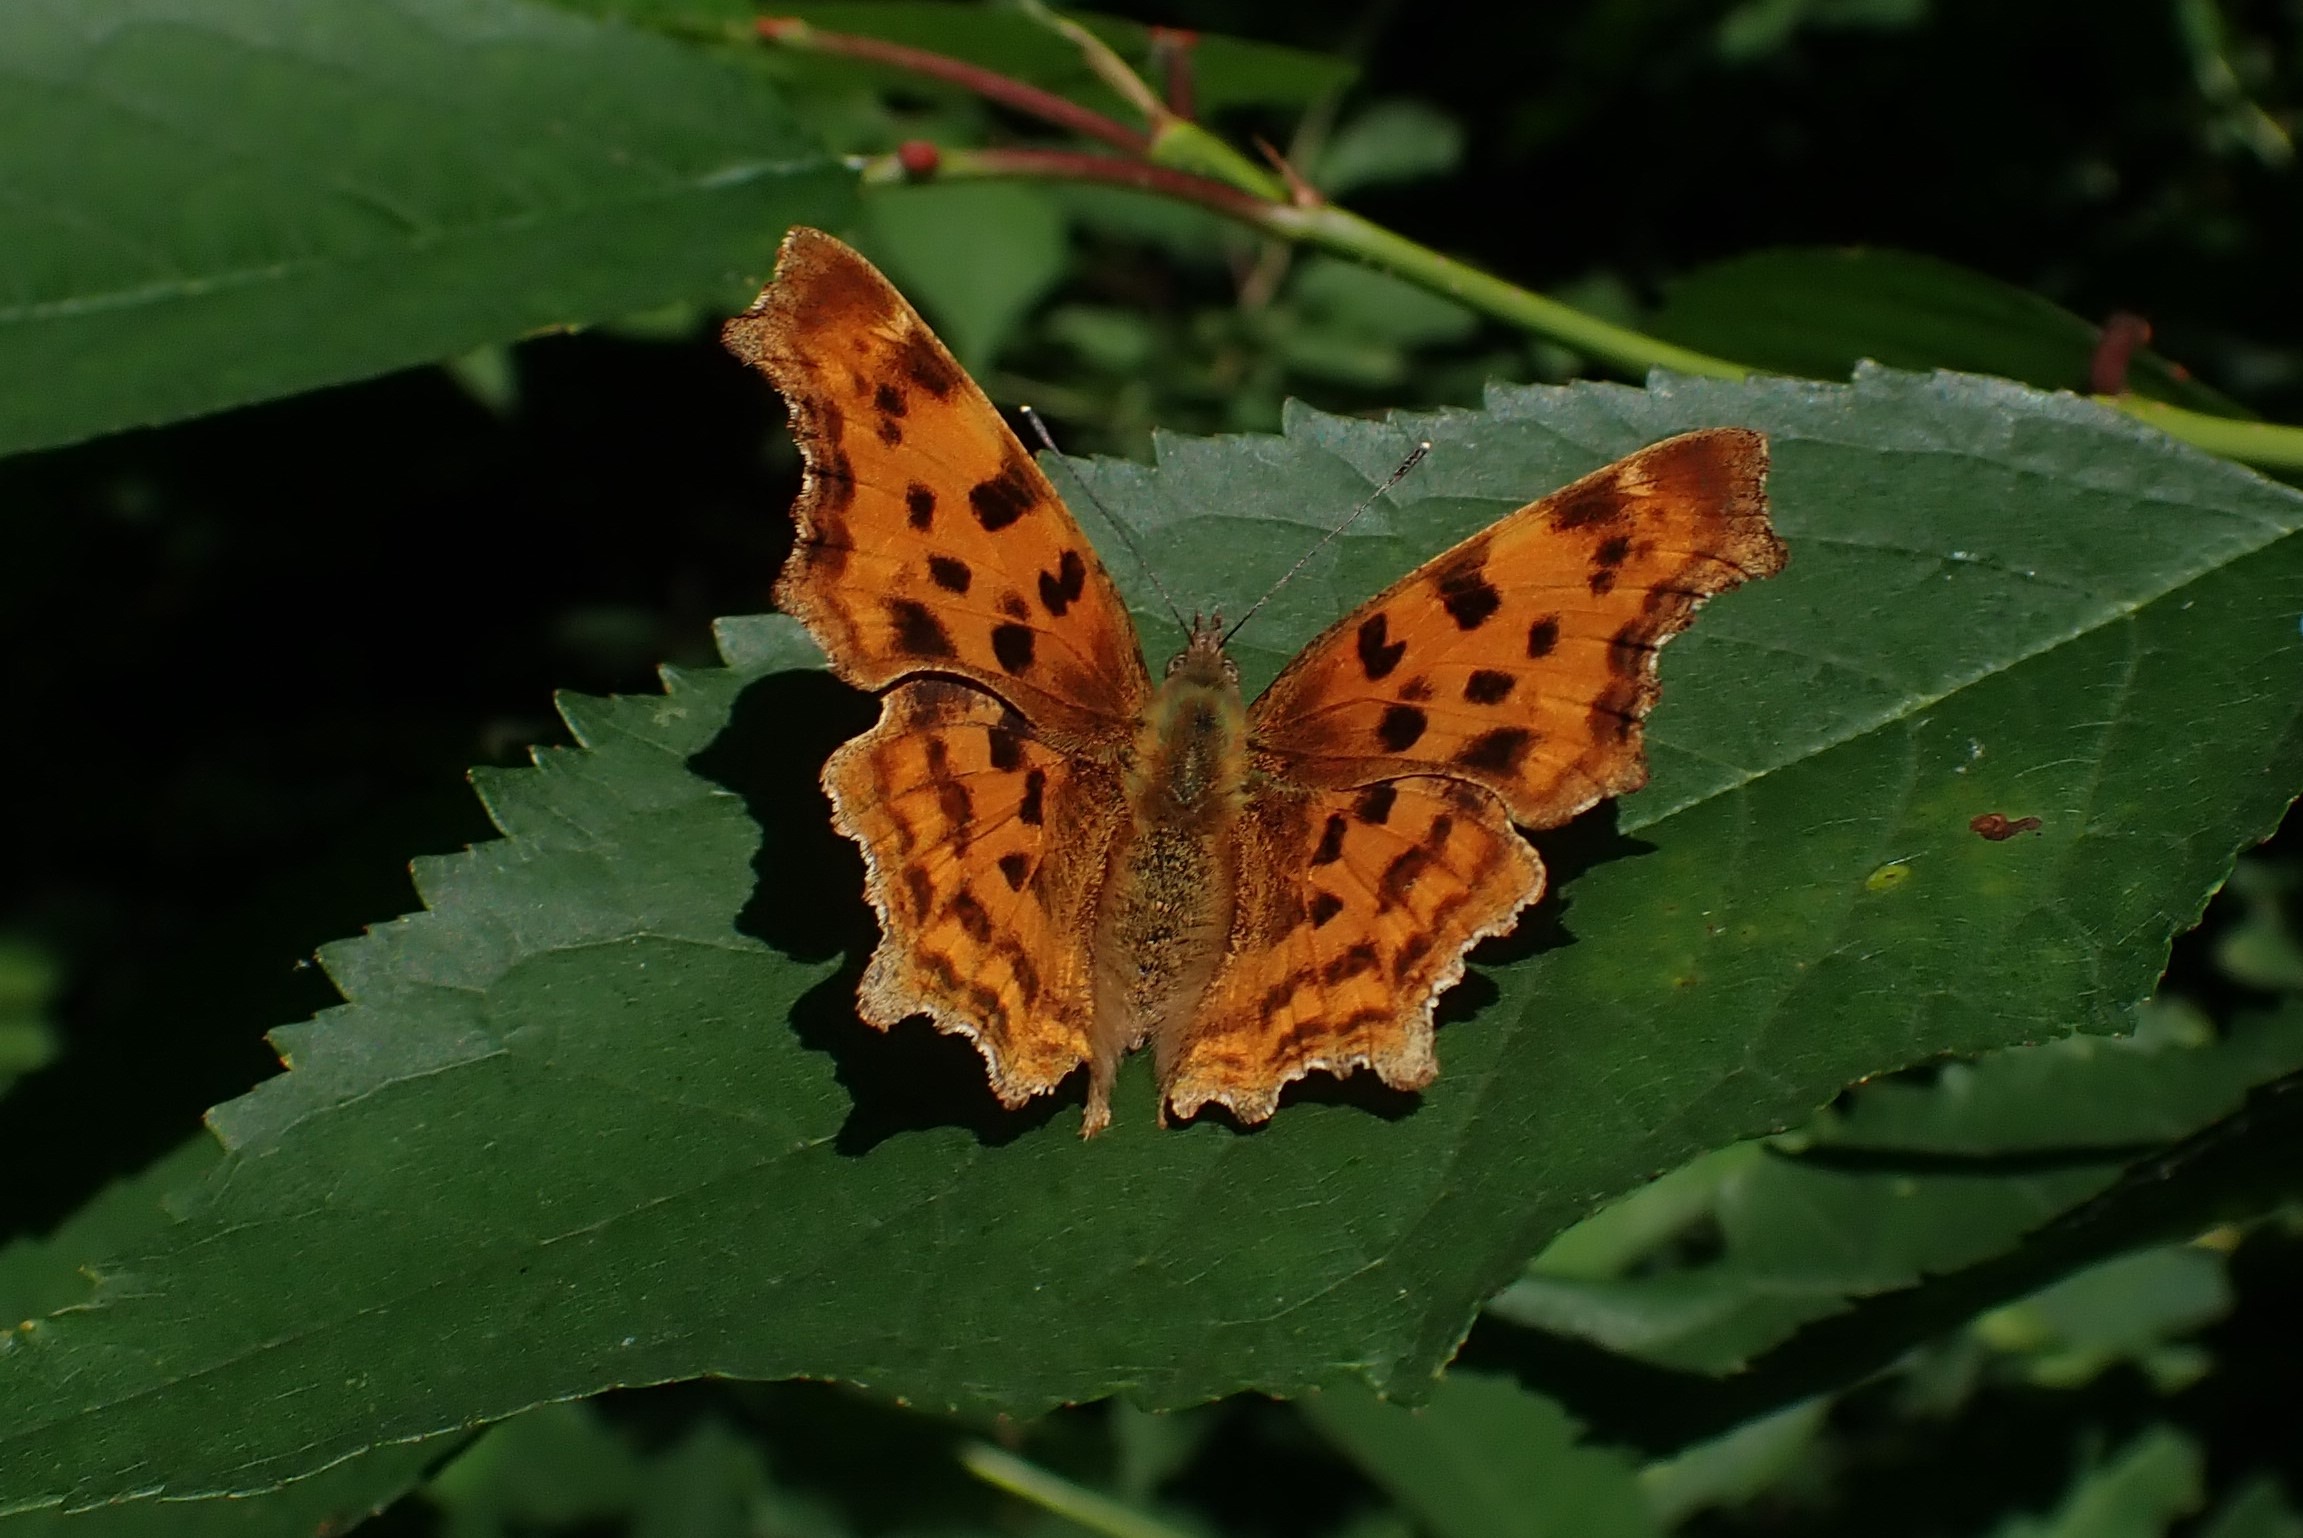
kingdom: Animalia
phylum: Arthropoda
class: Insecta
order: Lepidoptera
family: Nymphalidae
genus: Polygonia
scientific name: Polygonia c-album
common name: Det hvide C
